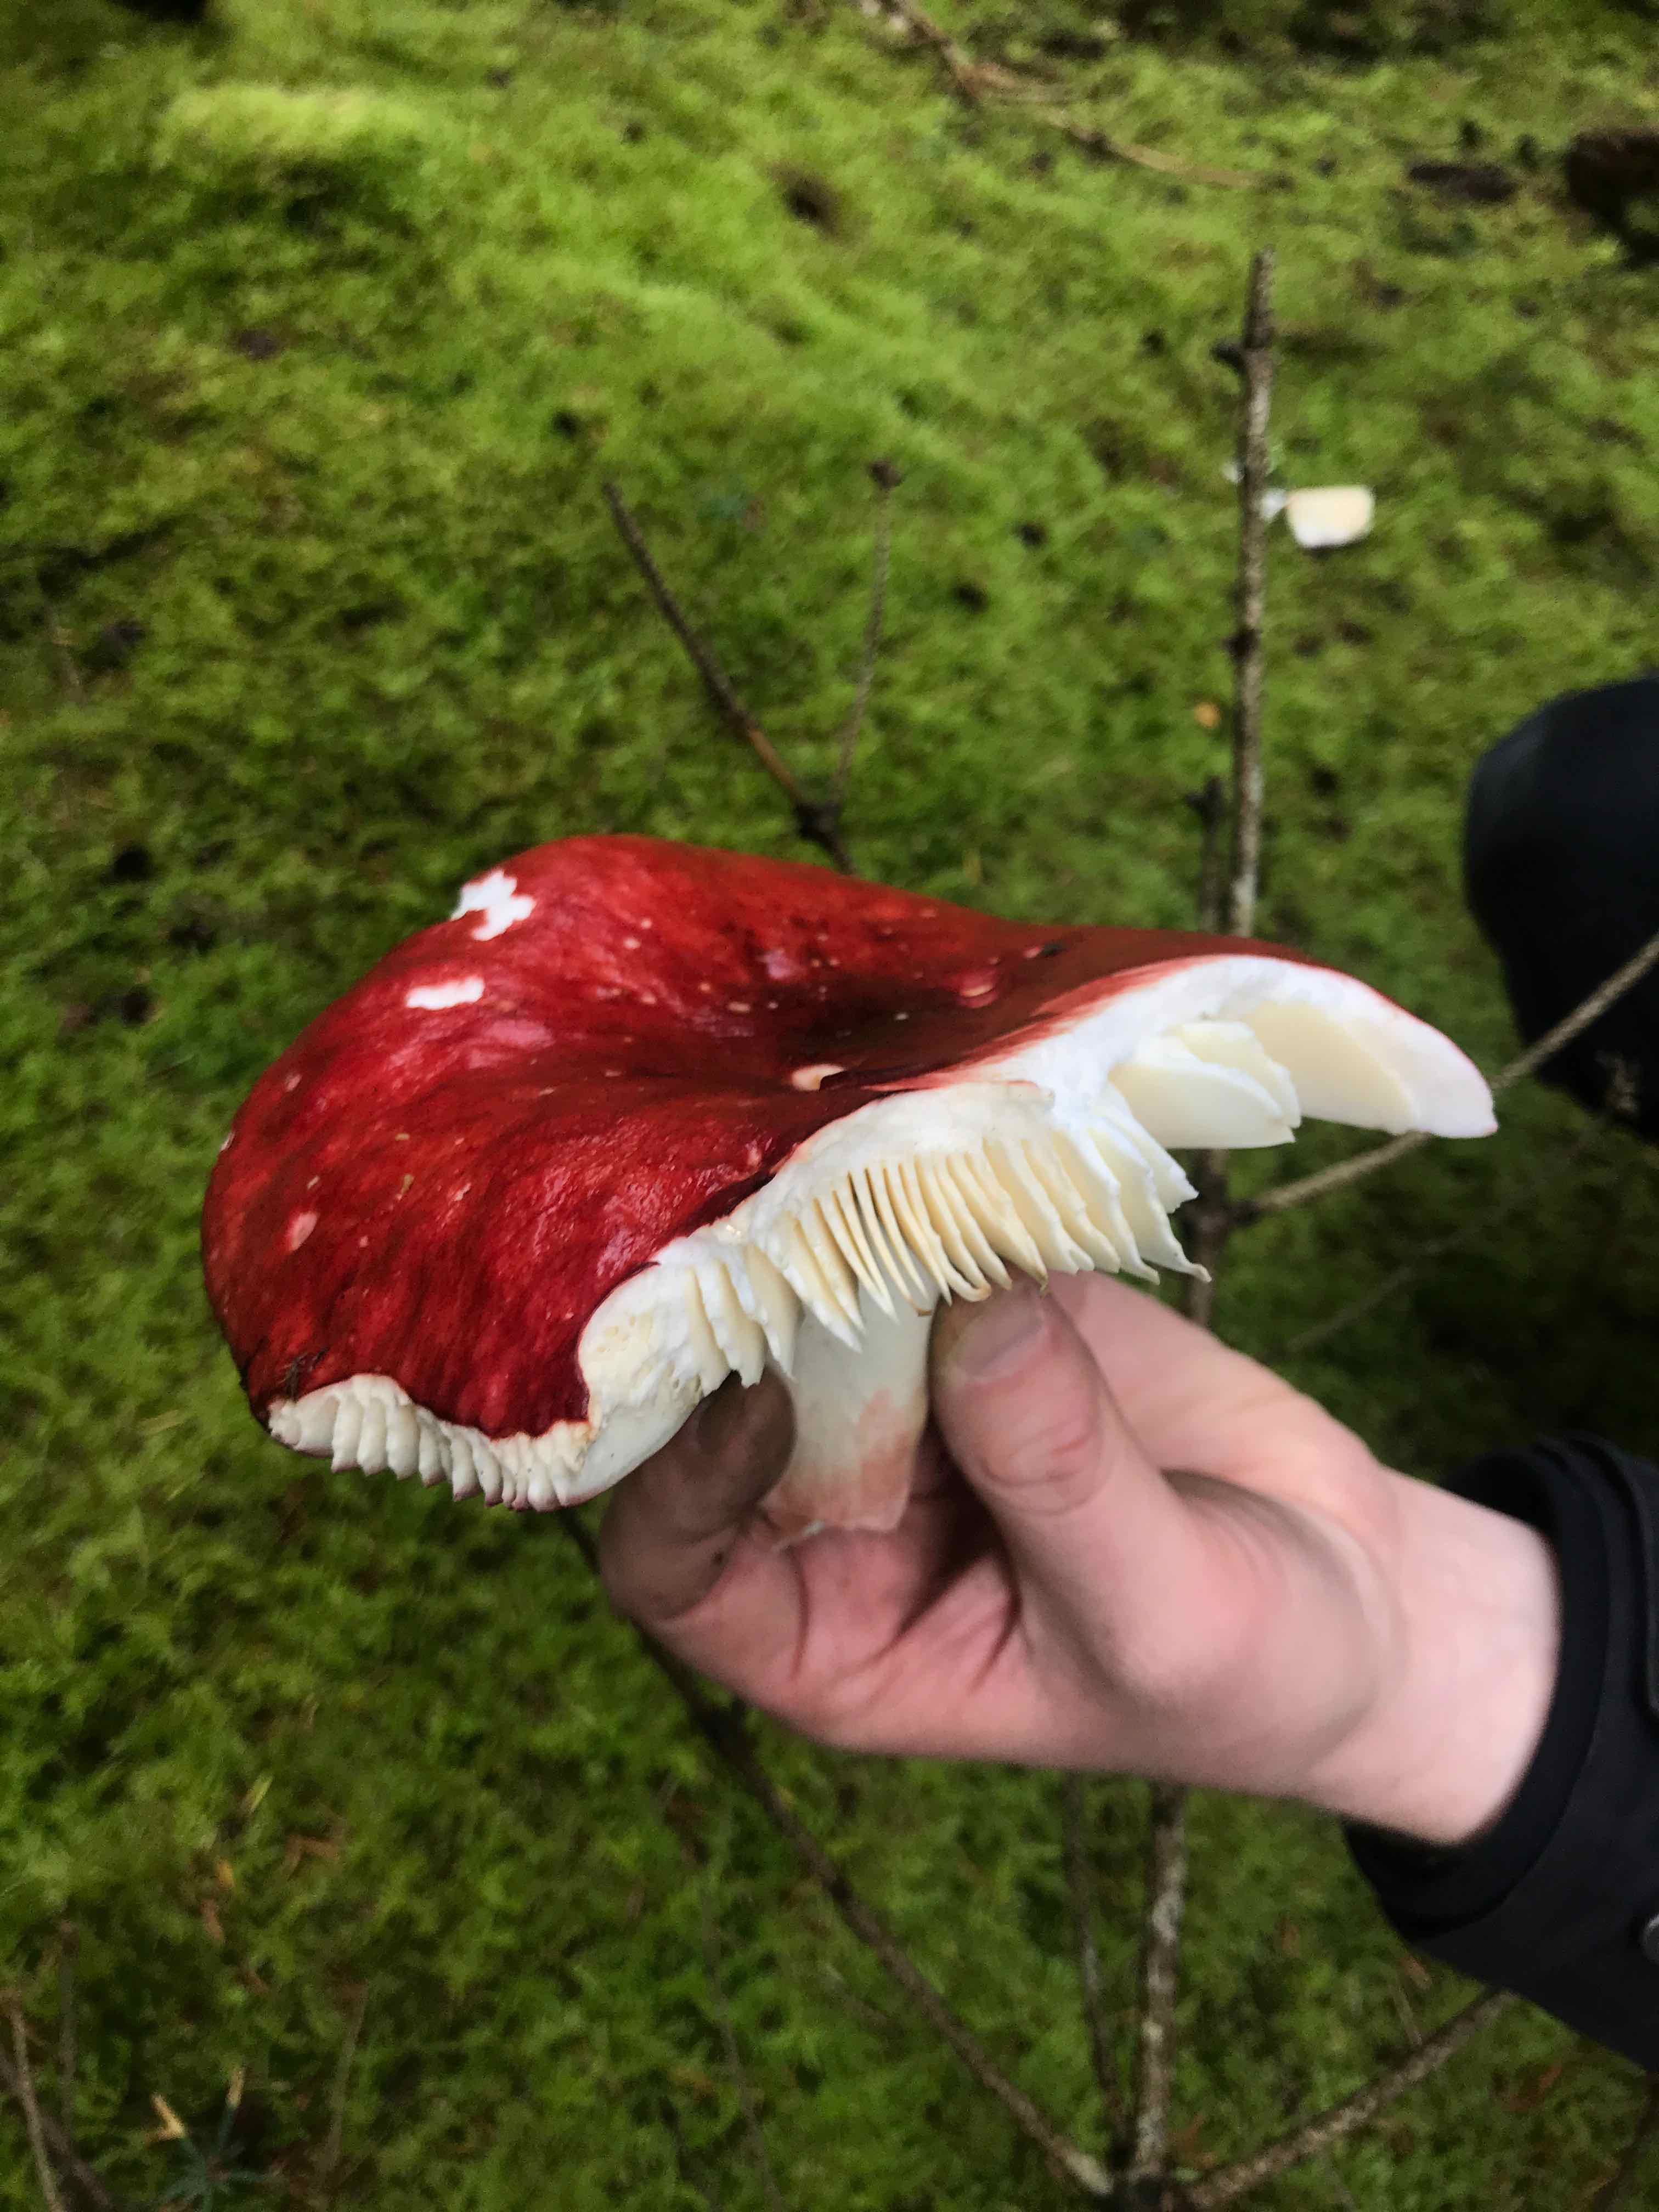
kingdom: Fungi
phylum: Basidiomycota
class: Agaricomycetes
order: Russulales
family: Russulaceae
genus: Russula
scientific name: Russula
